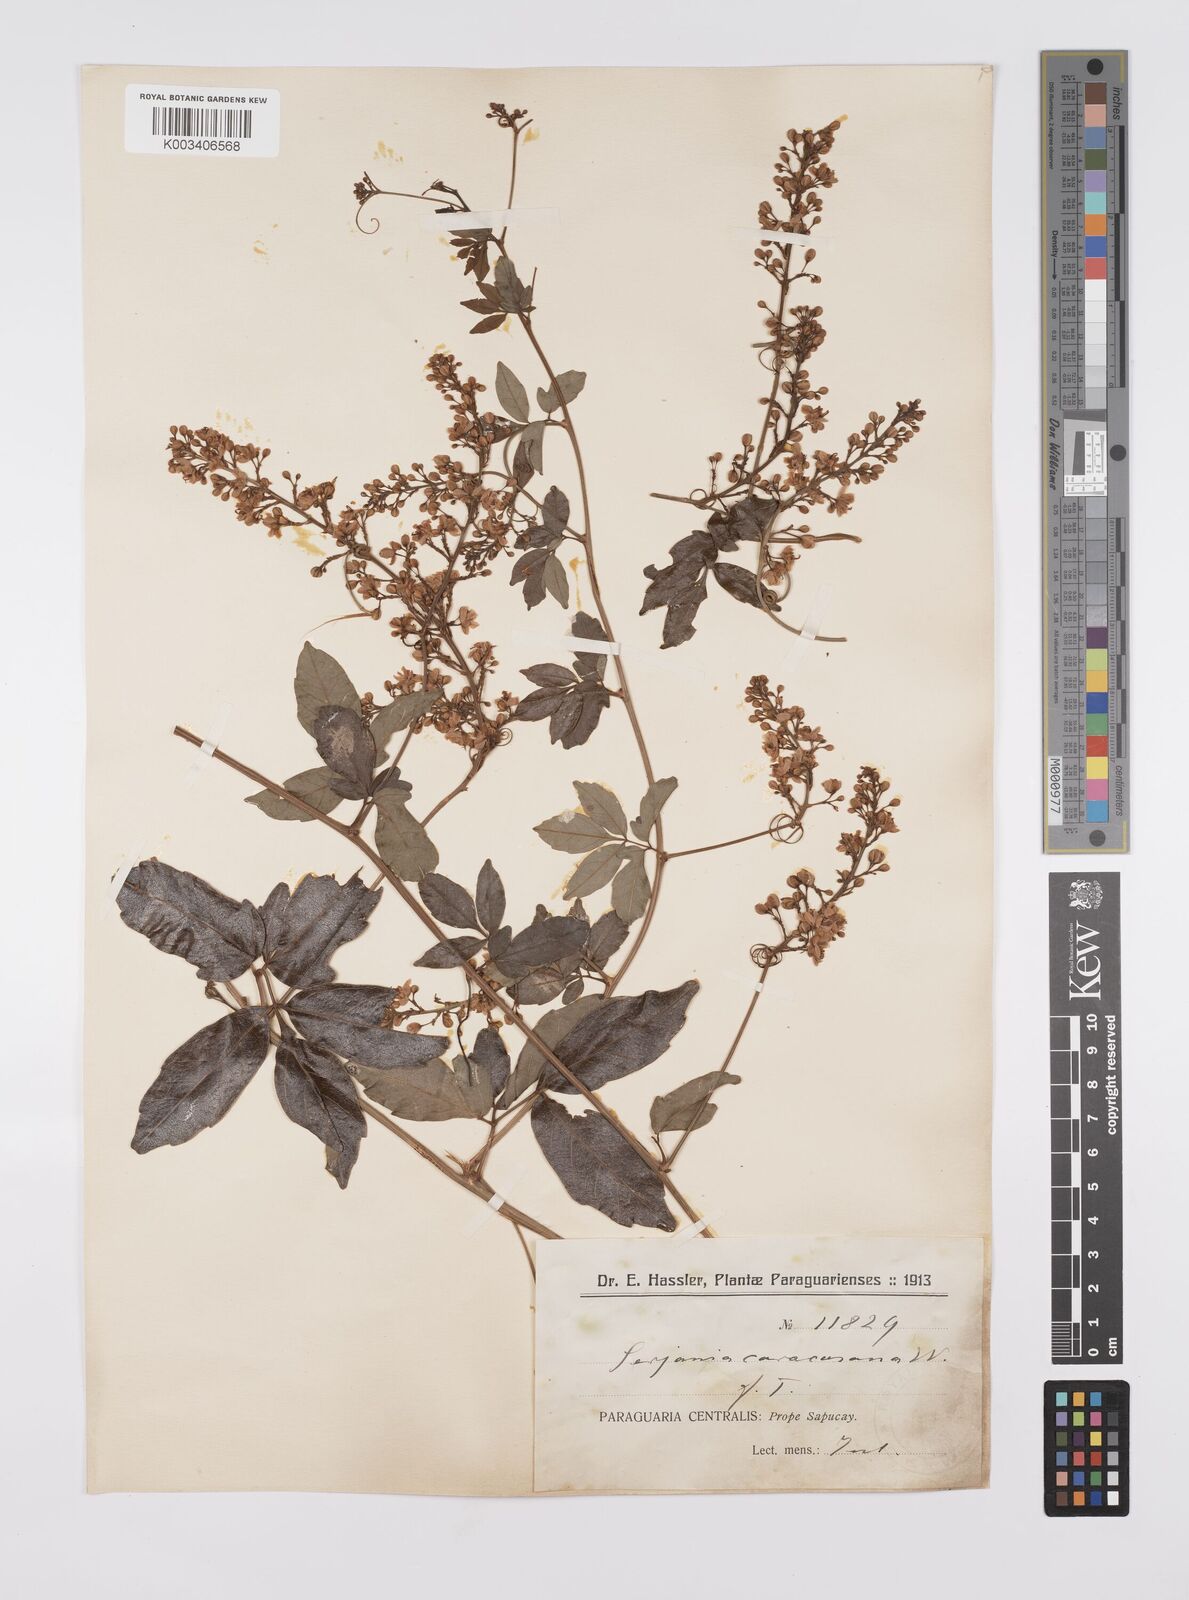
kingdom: Plantae
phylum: Tracheophyta
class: Magnoliopsida
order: Sapindales
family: Sapindaceae
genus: Serjania
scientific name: Serjania caracasana
